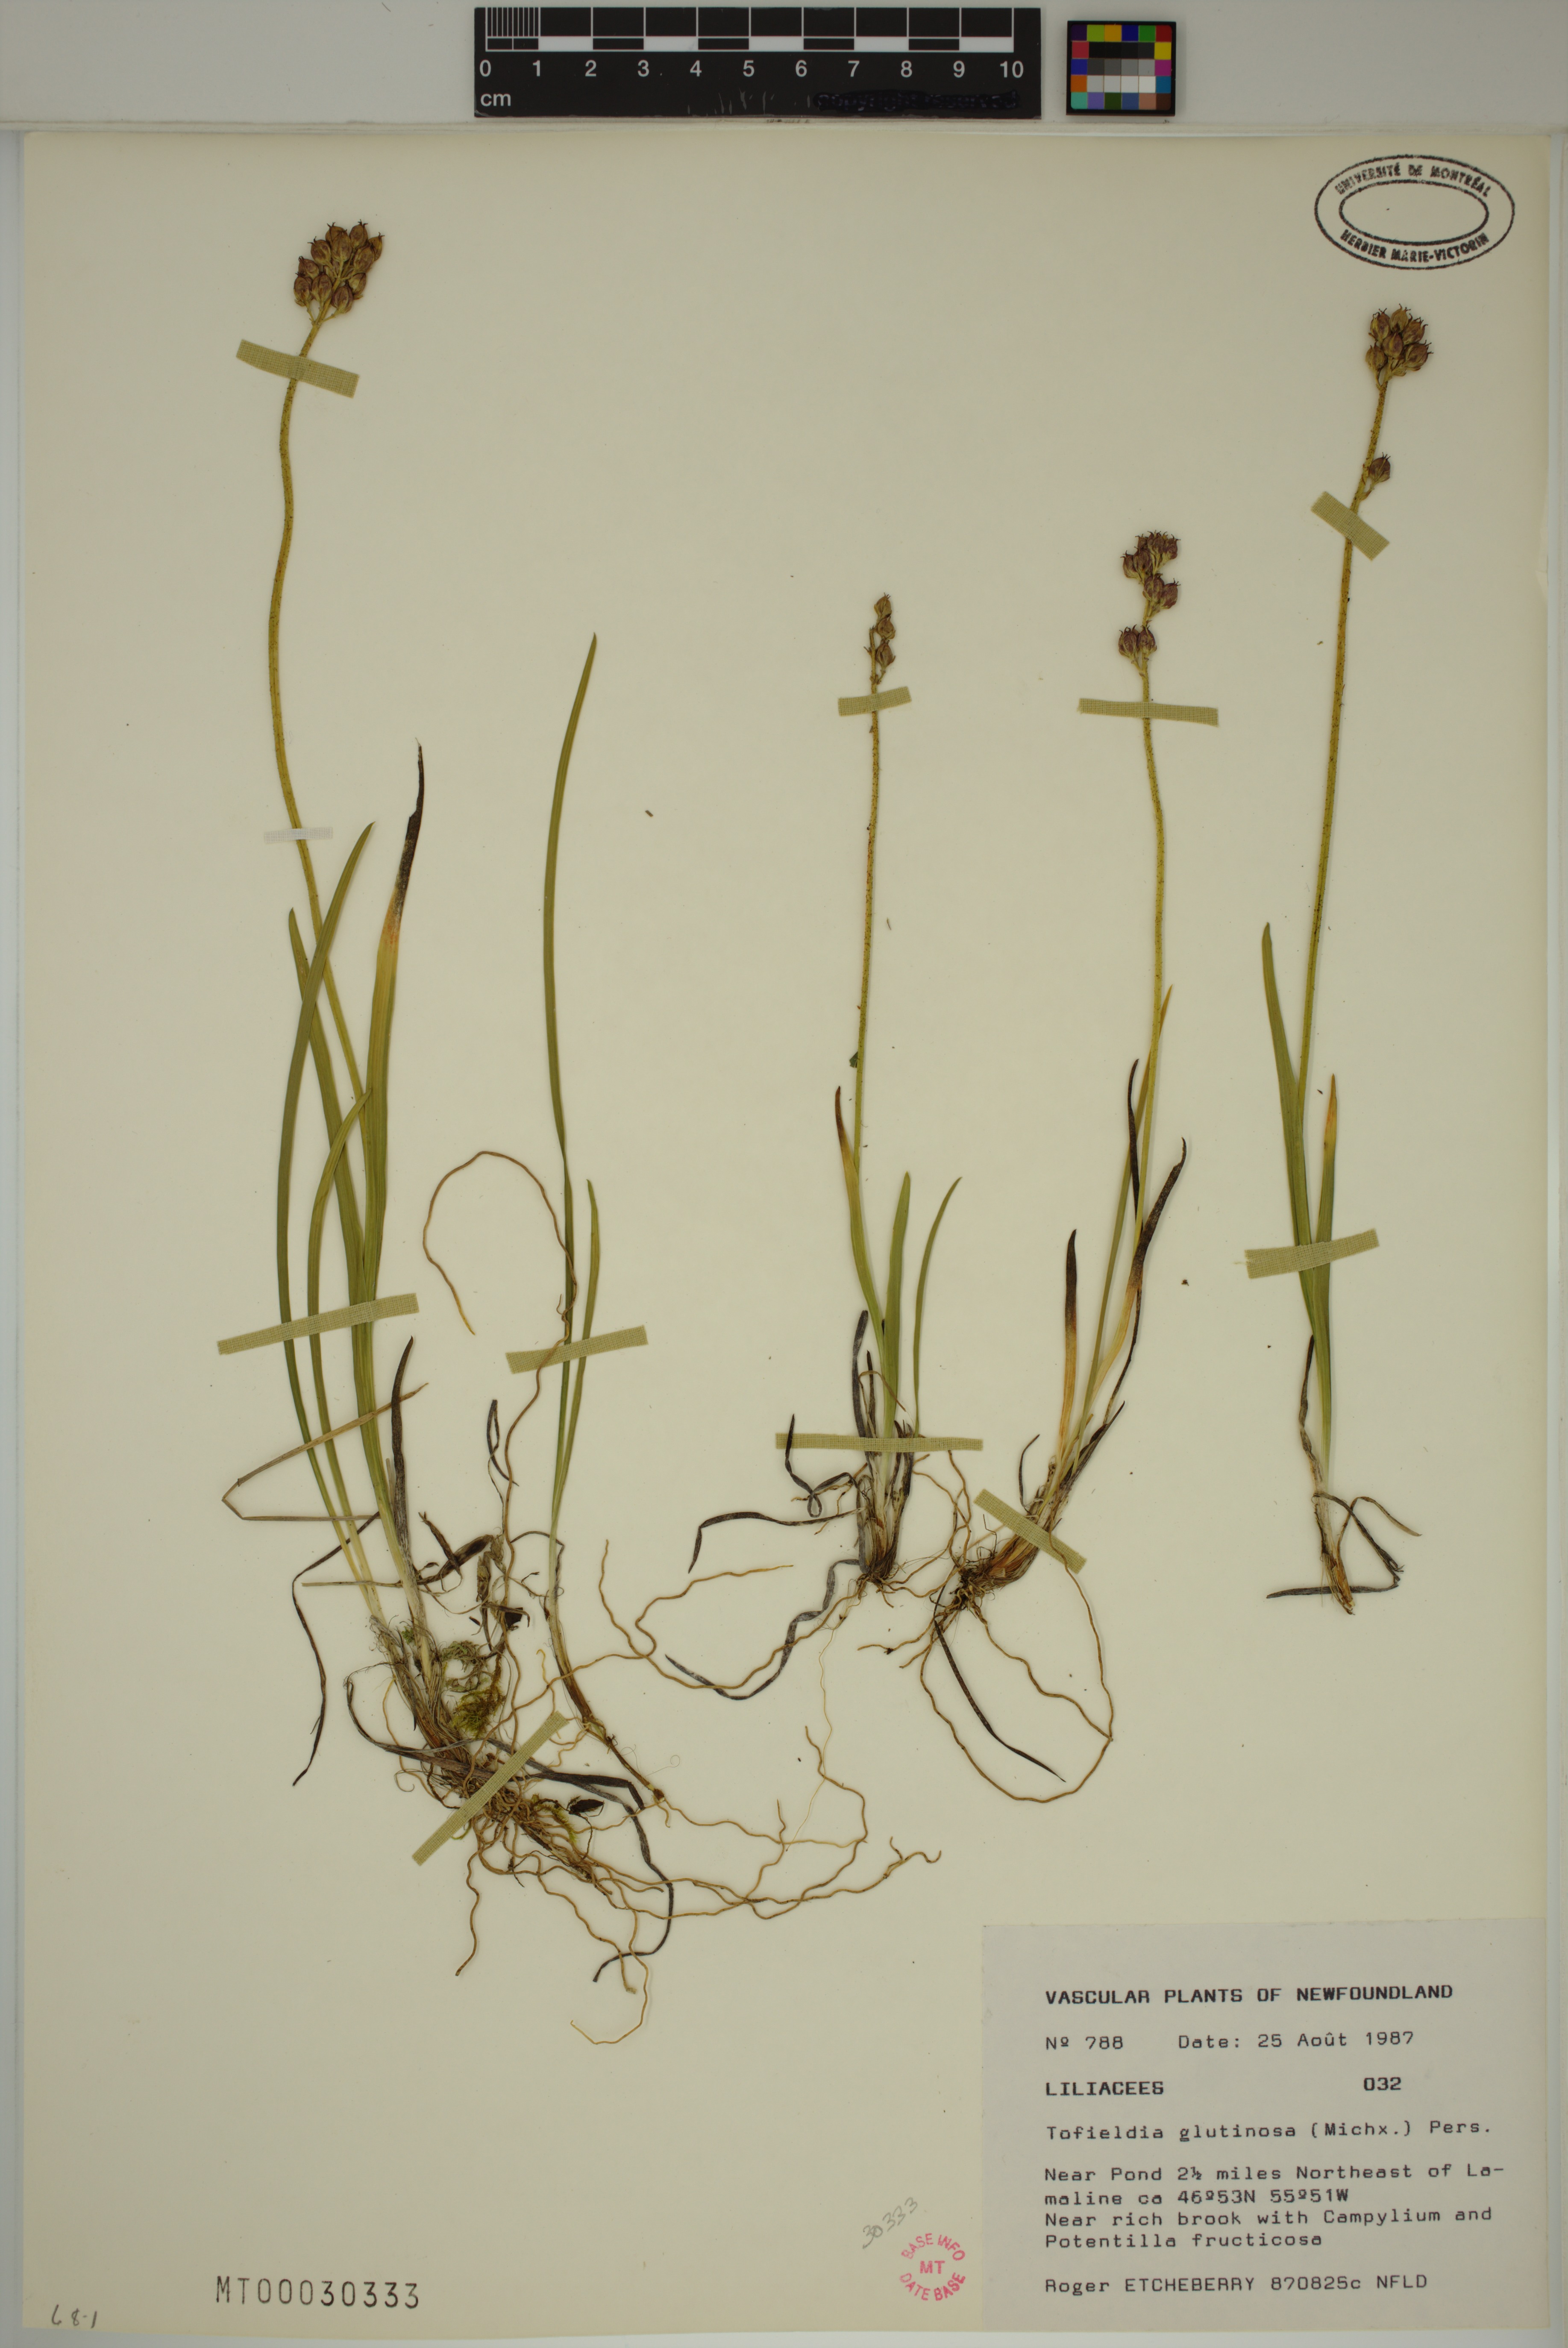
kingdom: Plantae
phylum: Tracheophyta
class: Liliopsida
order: Alismatales
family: Tofieldiaceae
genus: Triantha
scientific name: Triantha glutinosa
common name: Glutinous tofieldia
